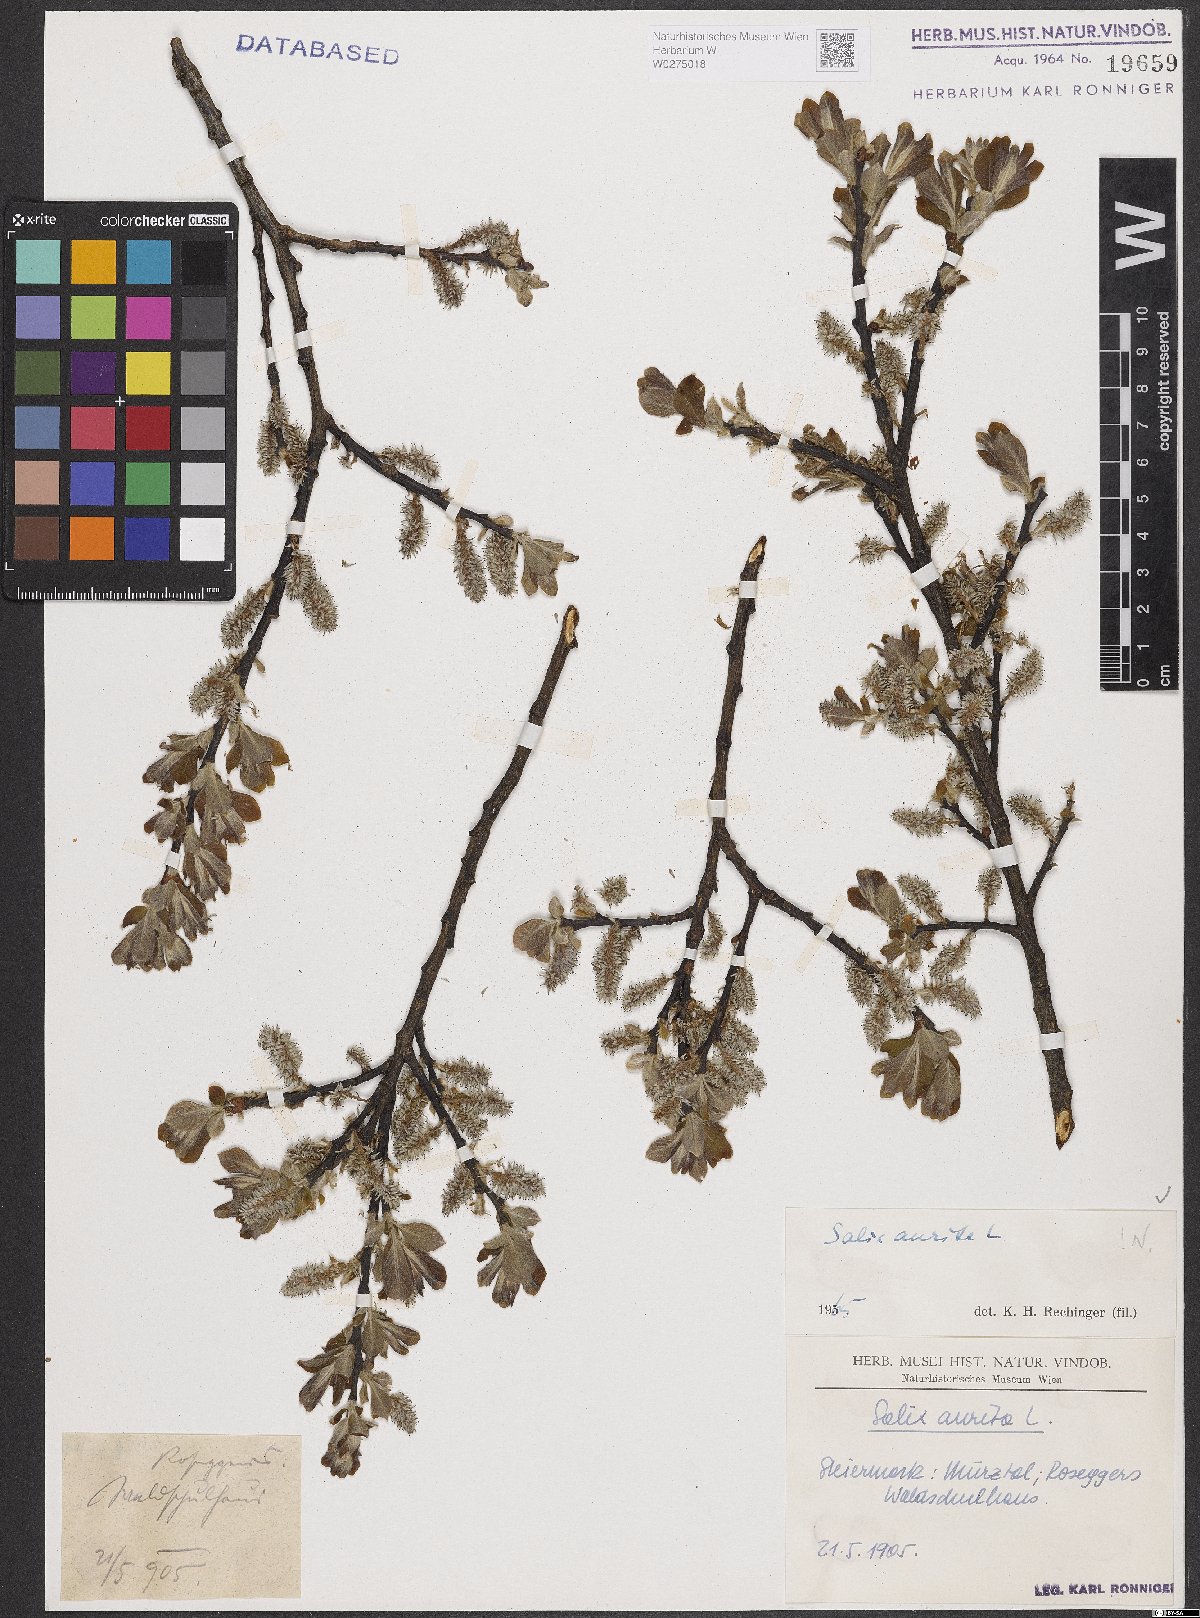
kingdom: Plantae
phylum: Tracheophyta
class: Magnoliopsida
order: Malpighiales
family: Salicaceae
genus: Salix
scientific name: Salix aurita
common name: Eared willow
